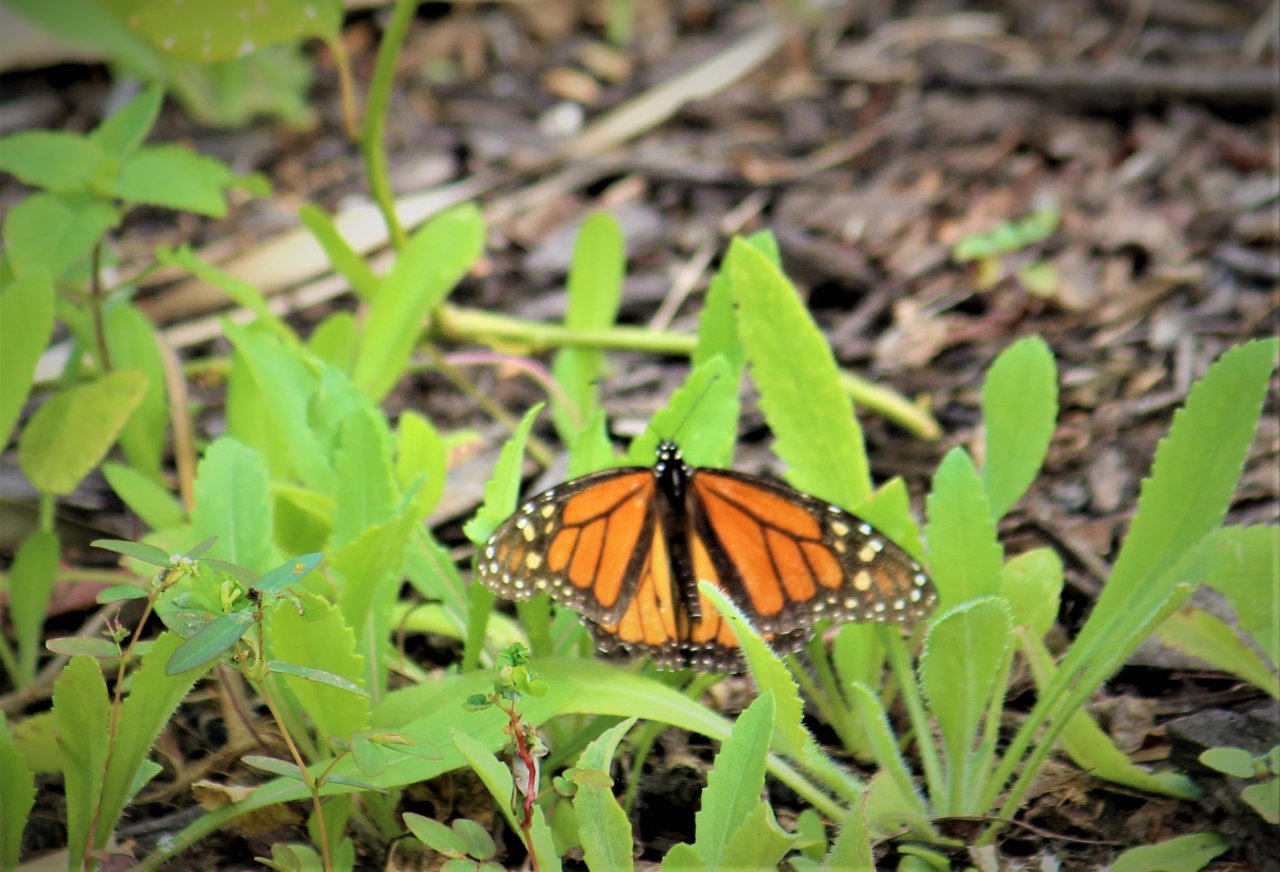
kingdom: Animalia
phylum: Arthropoda
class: Insecta
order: Lepidoptera
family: Nymphalidae
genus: Danaus
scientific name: Danaus plexippus
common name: Monarch
